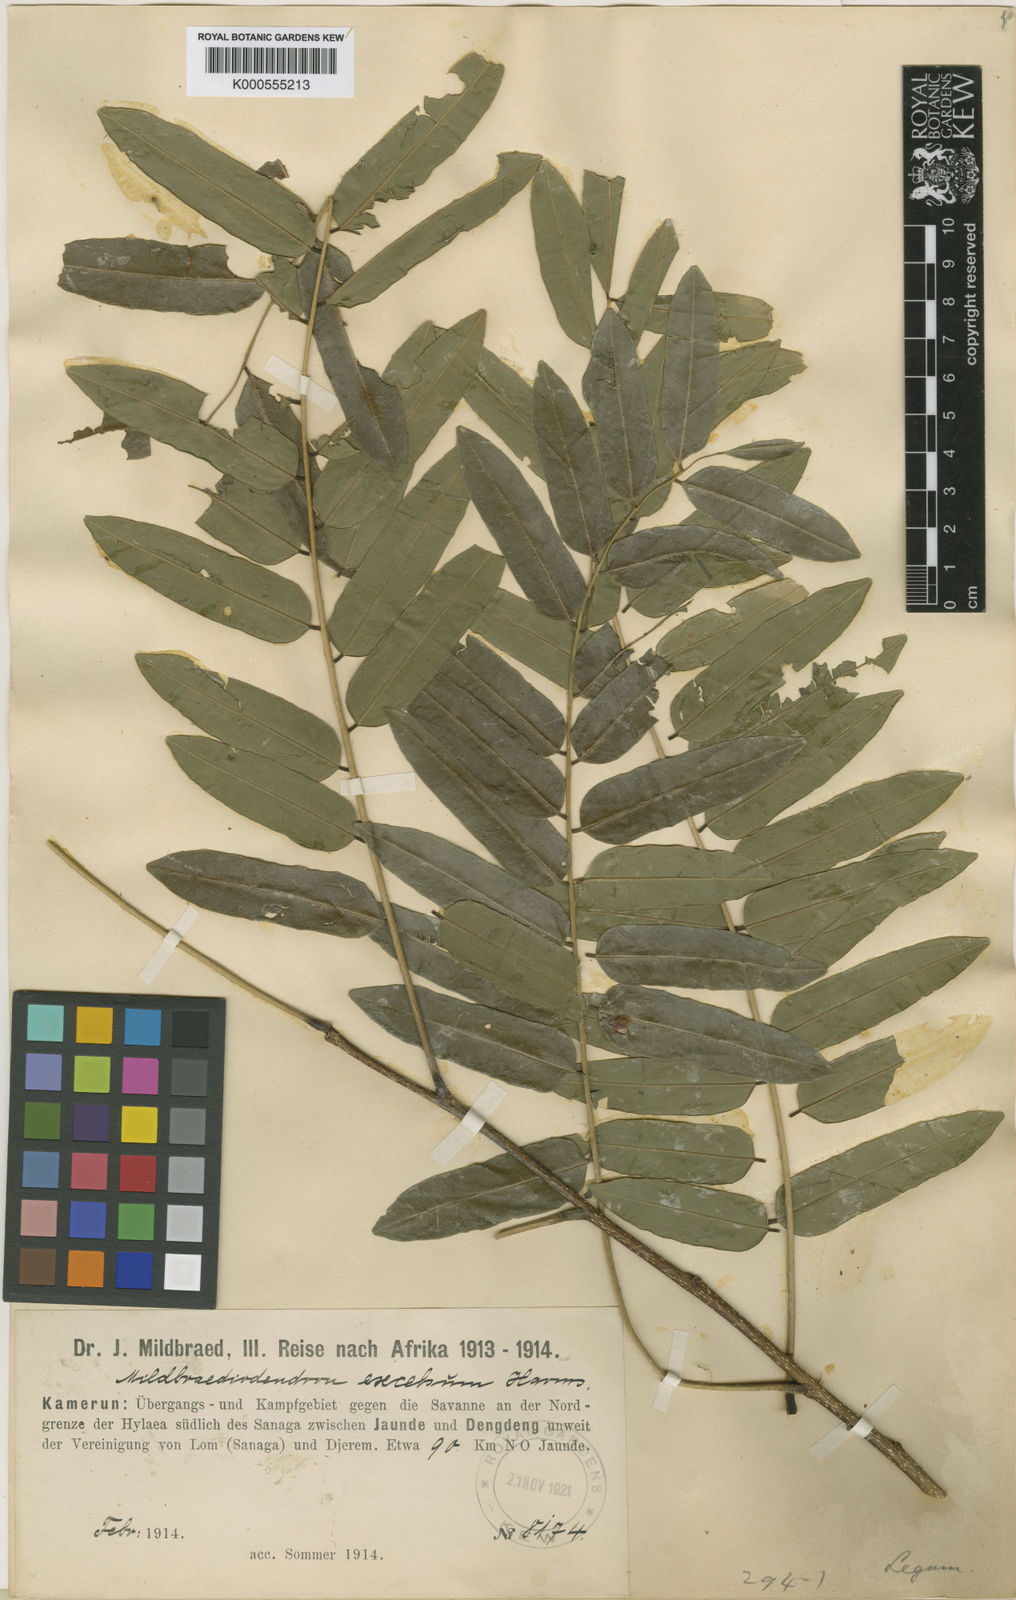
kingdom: Plantae
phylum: Tracheophyta
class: Magnoliopsida
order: Fabales
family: Fabaceae
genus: Mildbraediodendron
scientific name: Mildbraediodendron excelsum
